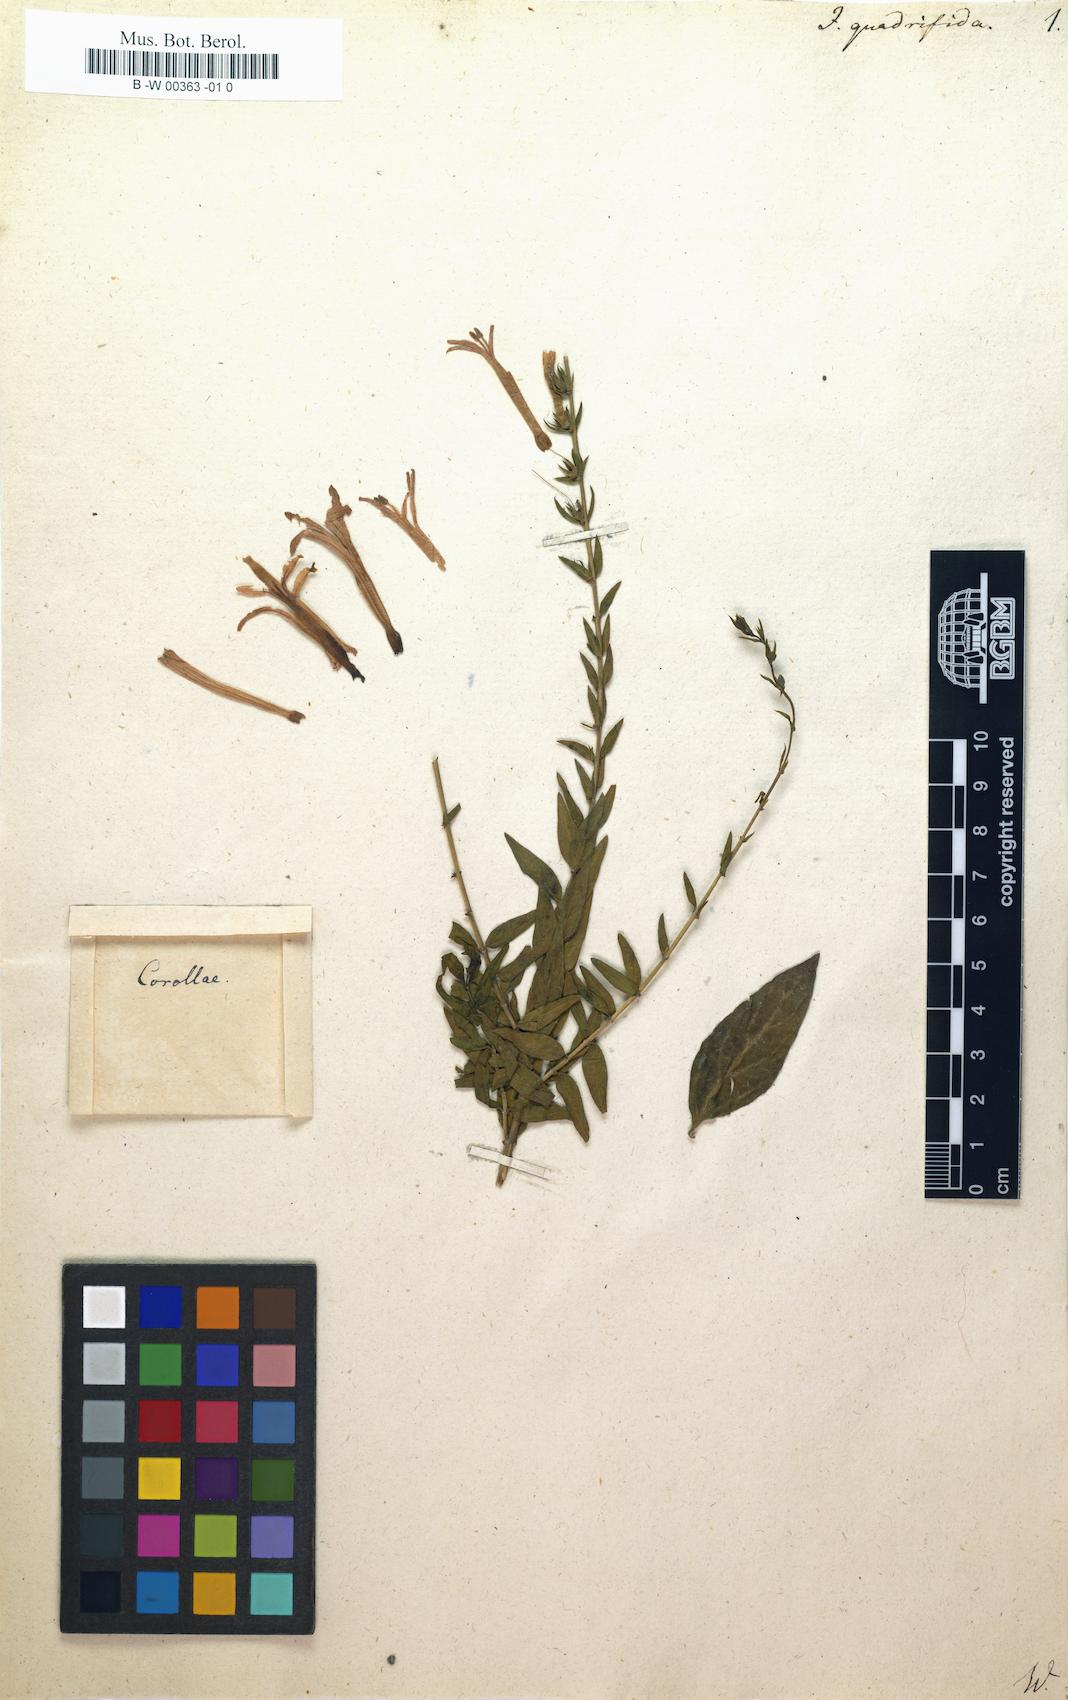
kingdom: Plantae
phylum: Tracheophyta
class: Magnoliopsida
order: Lamiales
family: Acanthaceae
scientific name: Acanthaceae
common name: Acanthaceae
